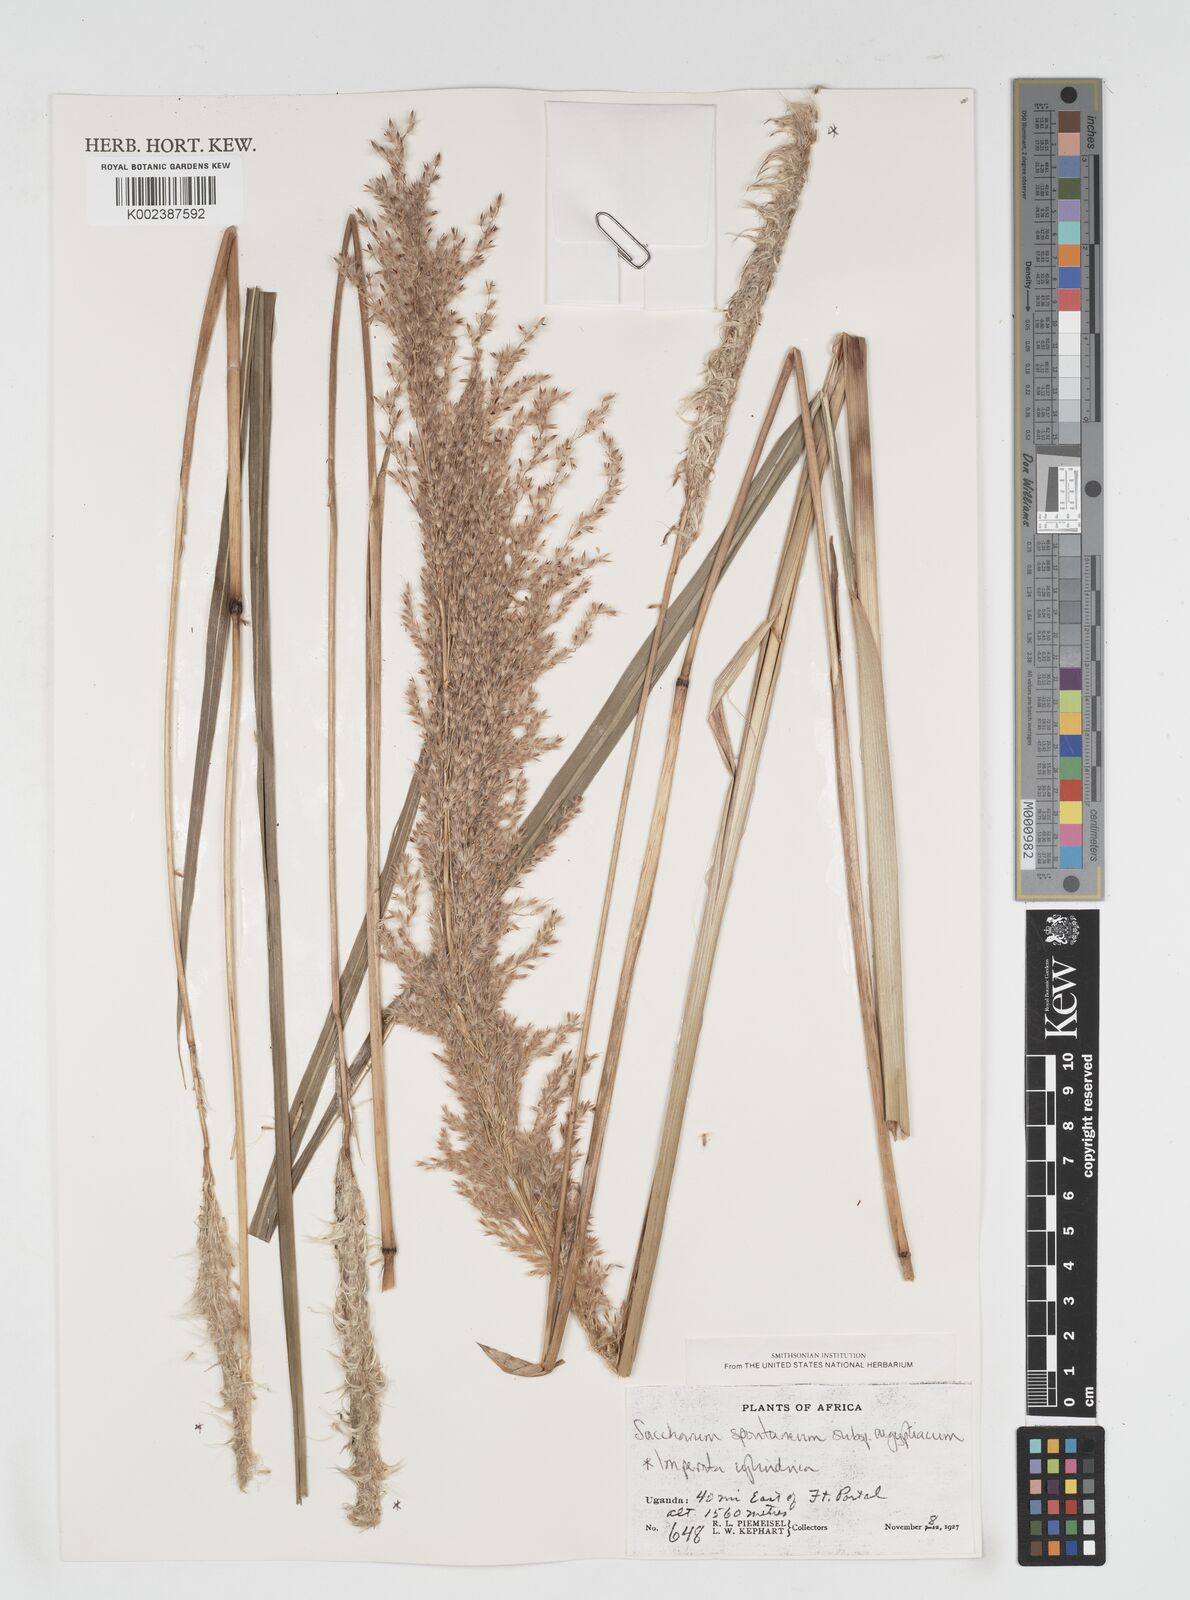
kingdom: Plantae
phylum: Tracheophyta
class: Liliopsida
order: Poales
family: Poaceae
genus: Miscanthidium
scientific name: Miscanthidium violaceum
